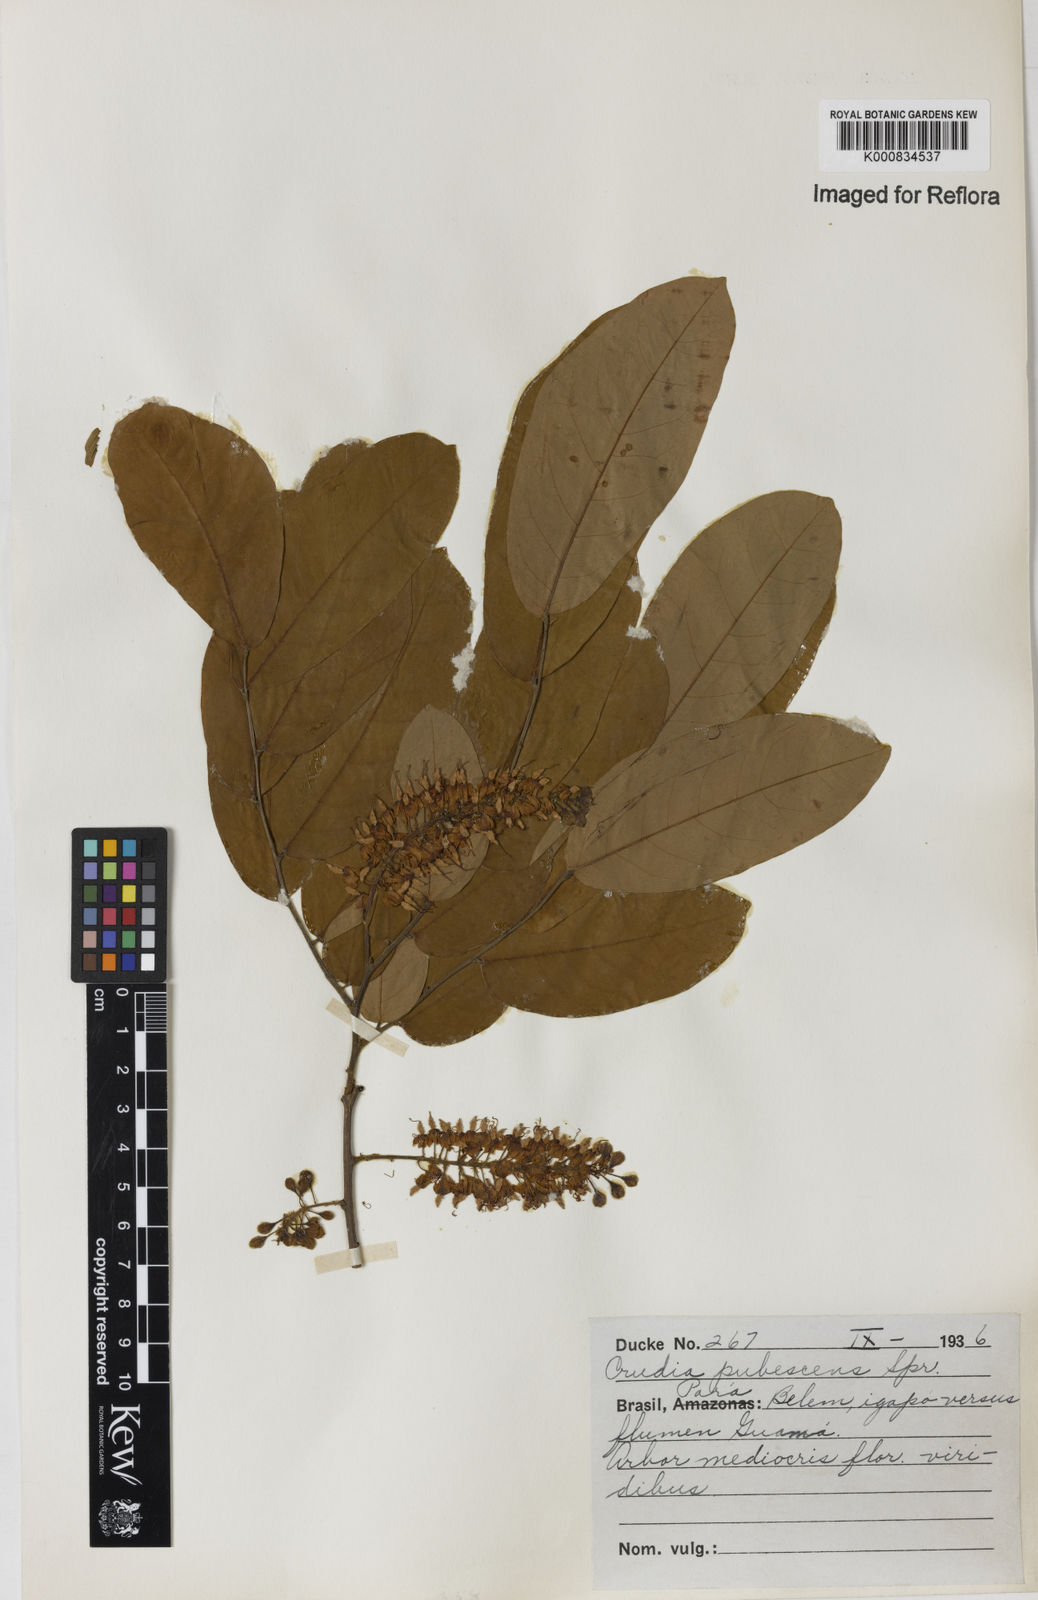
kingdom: Plantae
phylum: Tracheophyta
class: Magnoliopsida
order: Fabales
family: Fabaceae
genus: Crudia
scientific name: Crudia glaberrima
